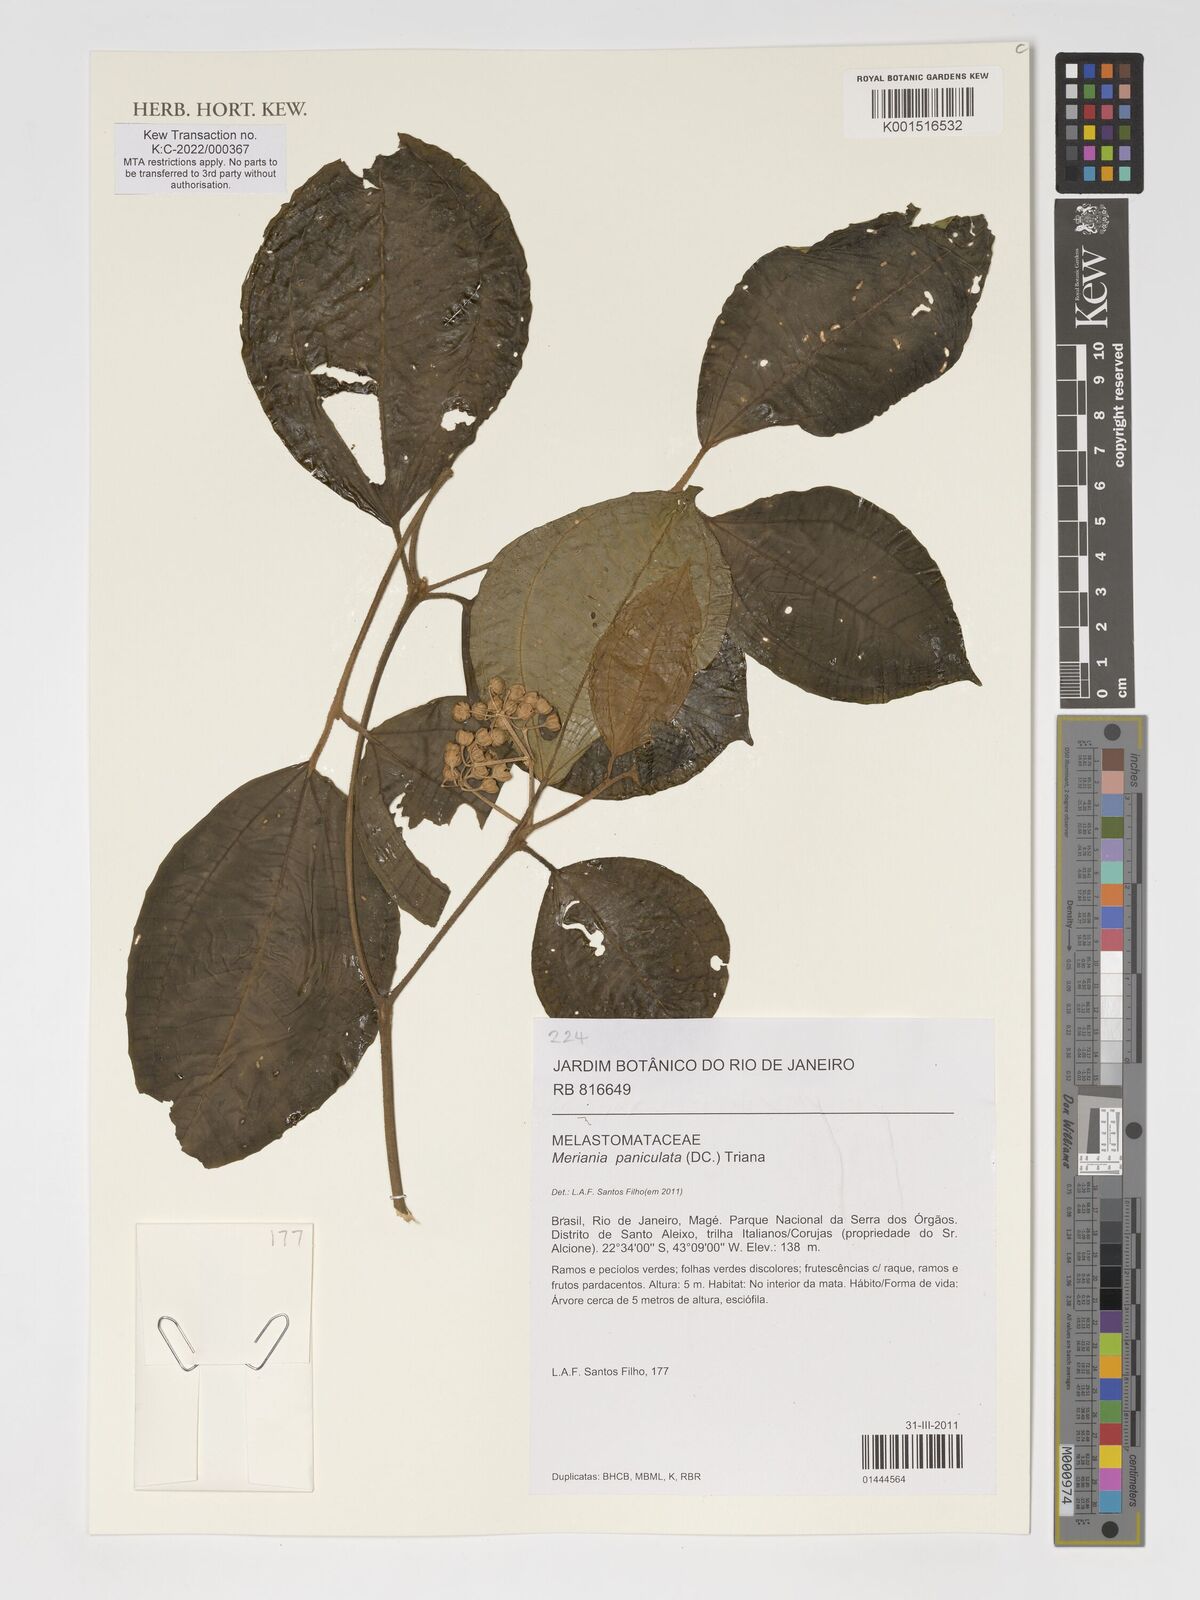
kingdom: Plantae
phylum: Tracheophyta
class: Magnoliopsida
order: Myrtales
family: Melastomataceae
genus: Meriania
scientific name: Meriania paniculata
